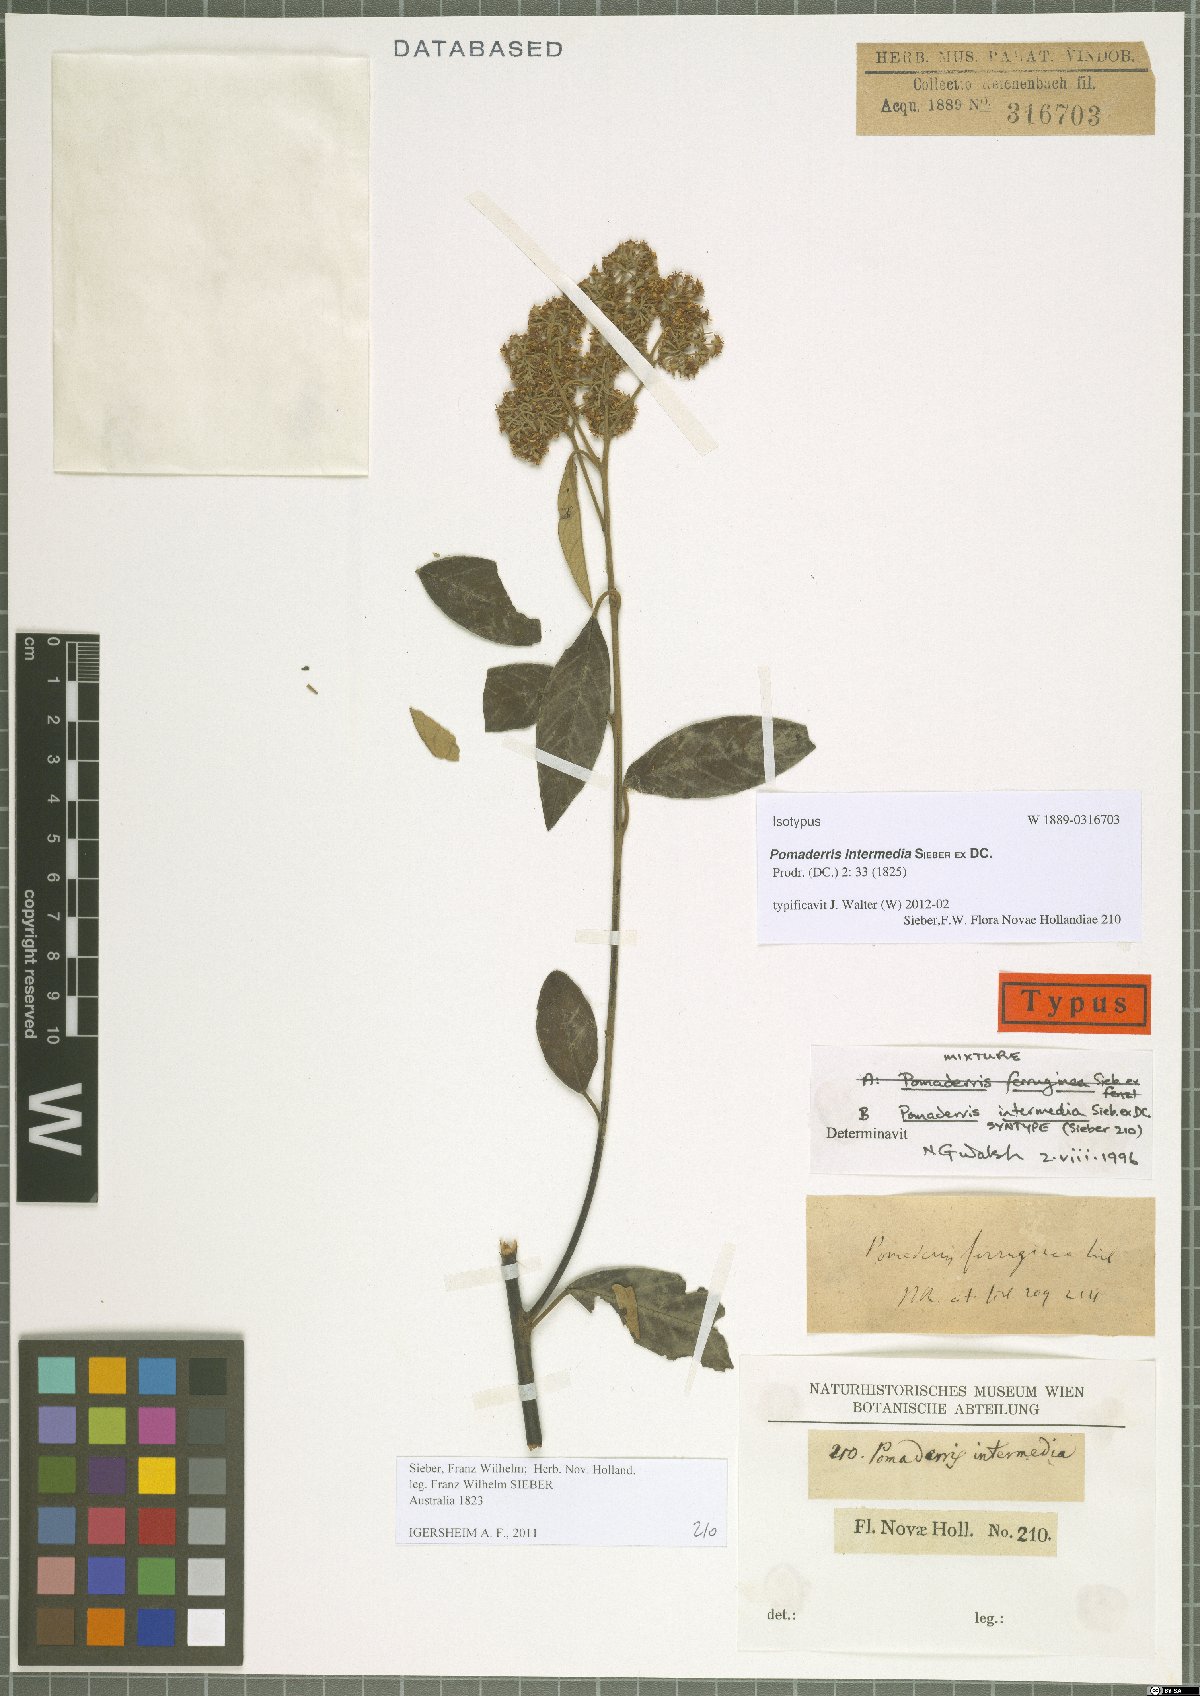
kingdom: Plantae
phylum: Tracheophyta
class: Magnoliopsida
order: Rosales
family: Rhamnaceae
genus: Pomaderris
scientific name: Pomaderris intermedia
